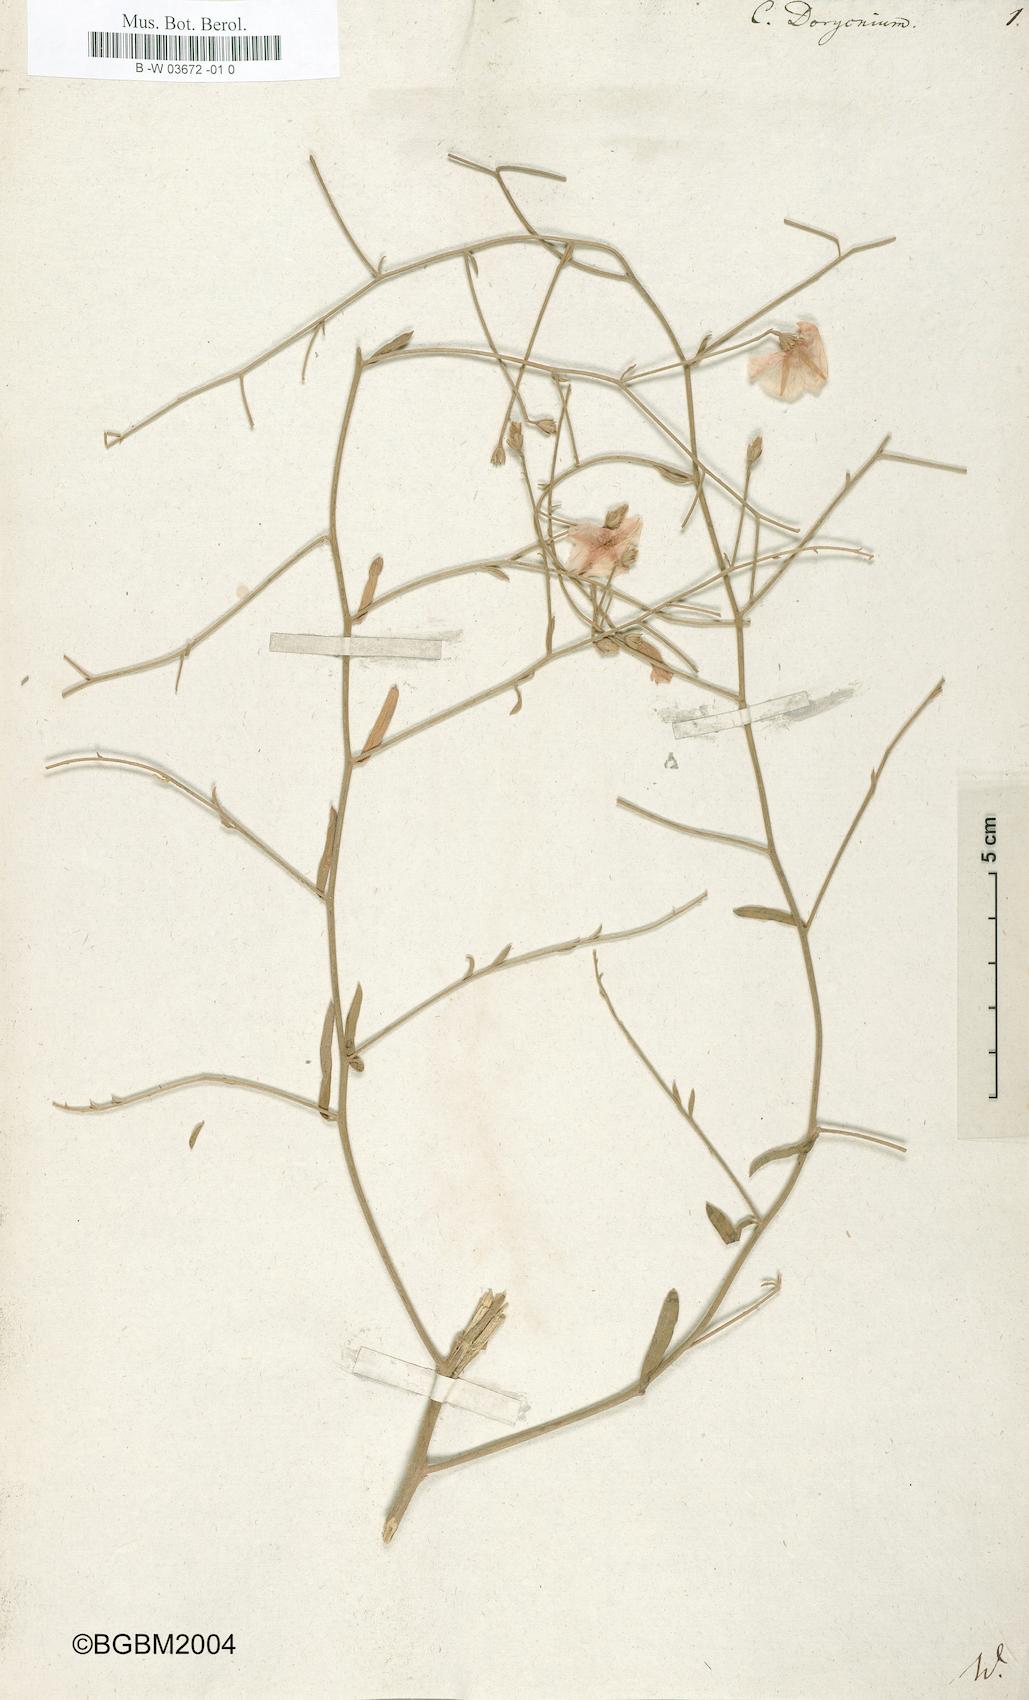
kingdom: Plantae
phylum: Tracheophyta
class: Magnoliopsida
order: Solanales
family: Convolvulaceae
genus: Convolvulus
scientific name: Convolvulus dorycnium
